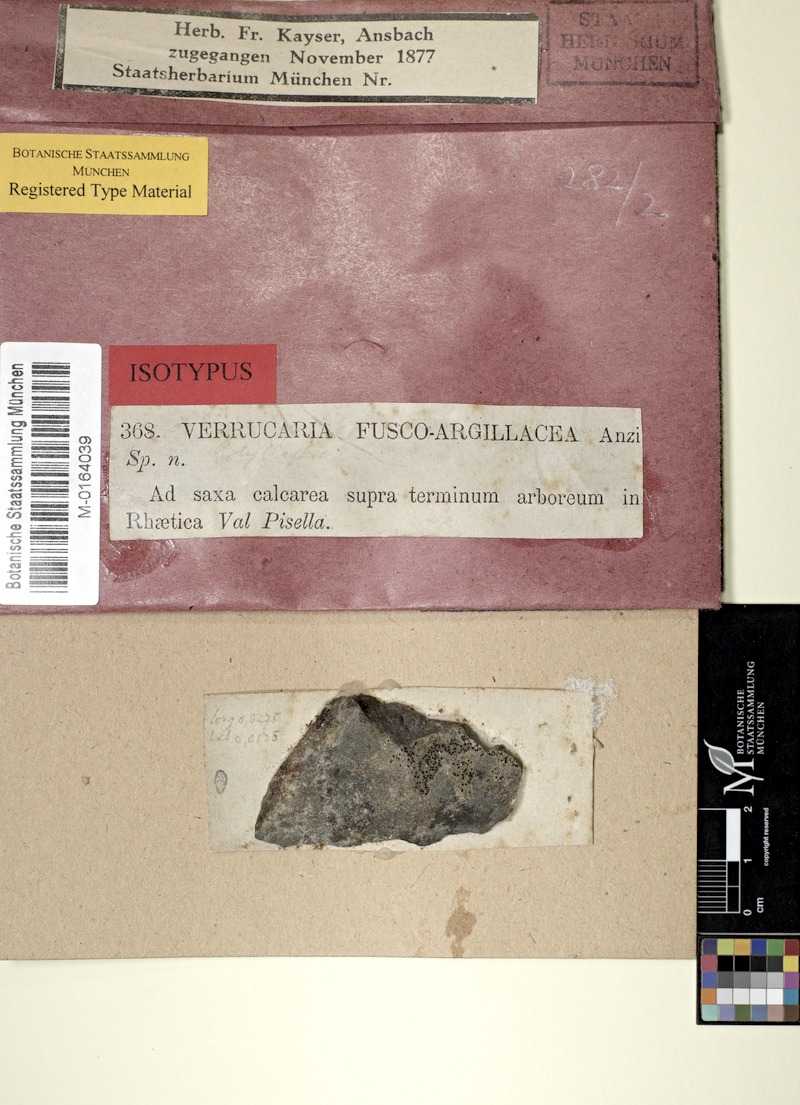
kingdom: Fungi
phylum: Ascomycota
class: Eurotiomycetes
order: Verrucariales
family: Verrucariaceae
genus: Polyblastia
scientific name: Polyblastia cupularis
